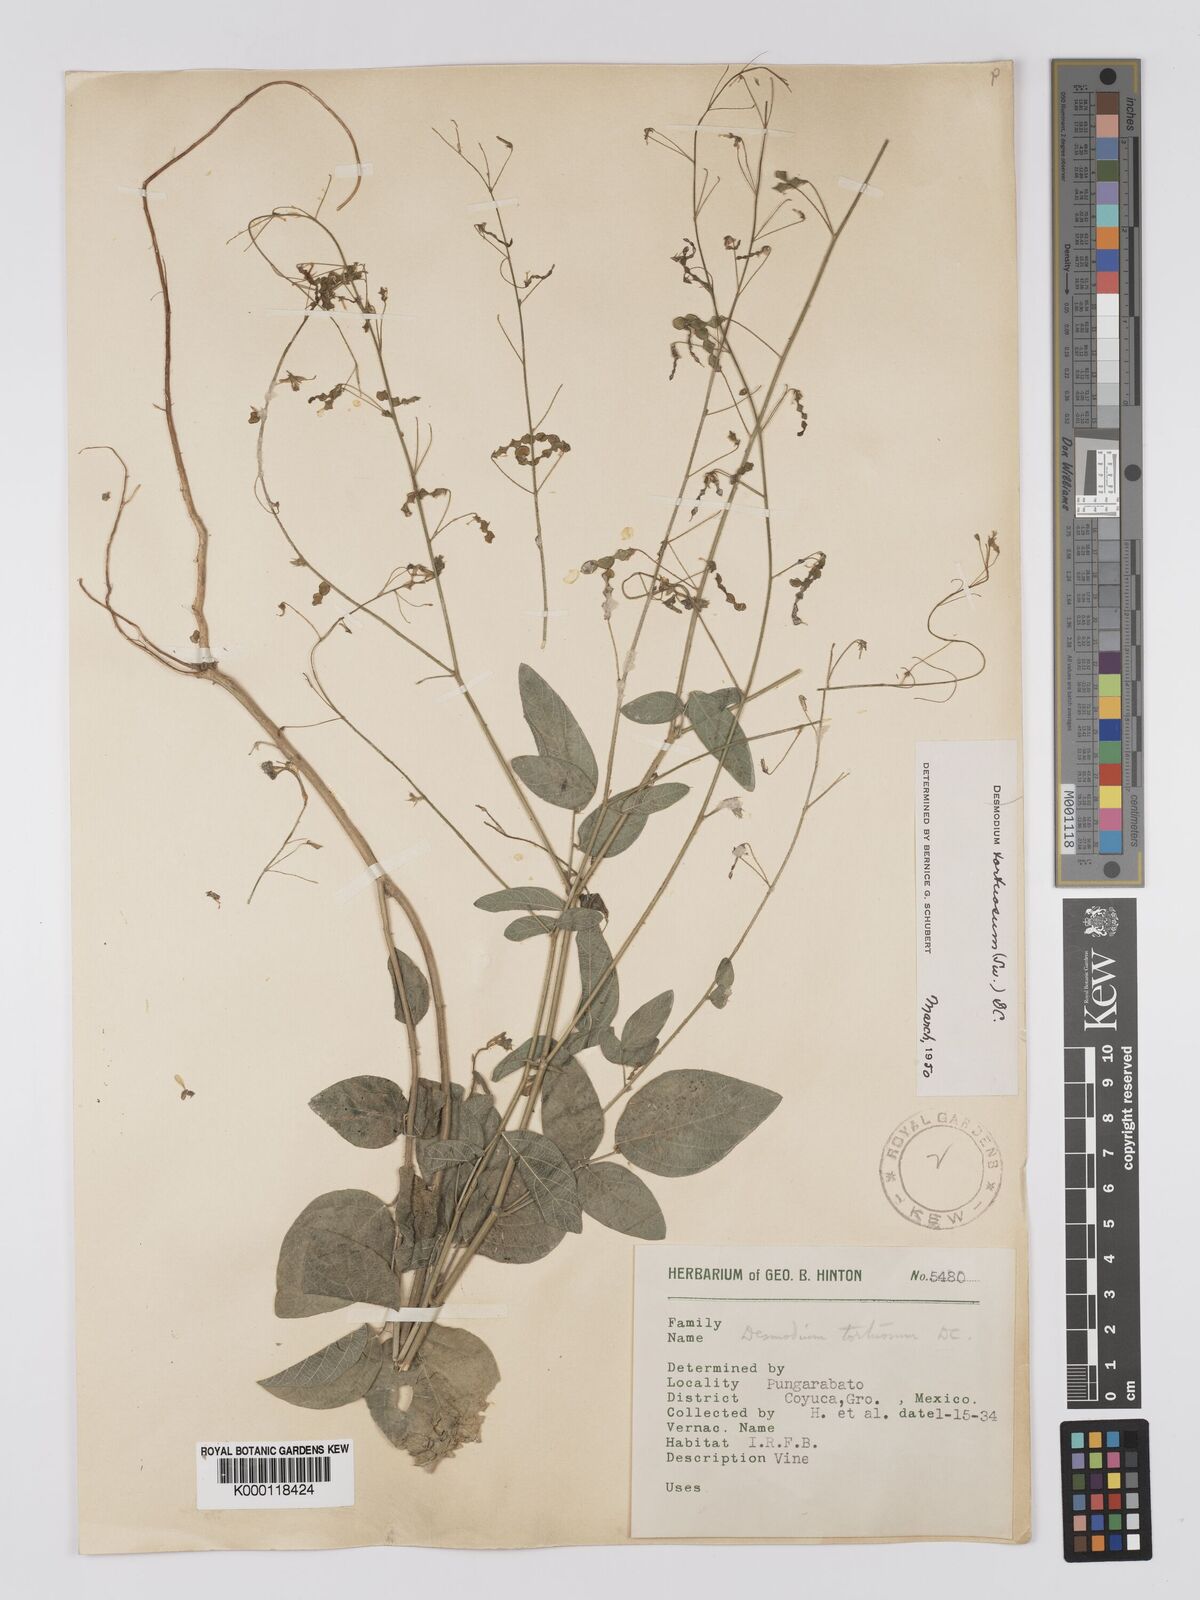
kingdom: Plantae
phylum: Tracheophyta
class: Magnoliopsida
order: Fabales
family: Fabaceae
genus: Desmodium
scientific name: Desmodium tortuosum
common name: Dixie ticktrefoil
